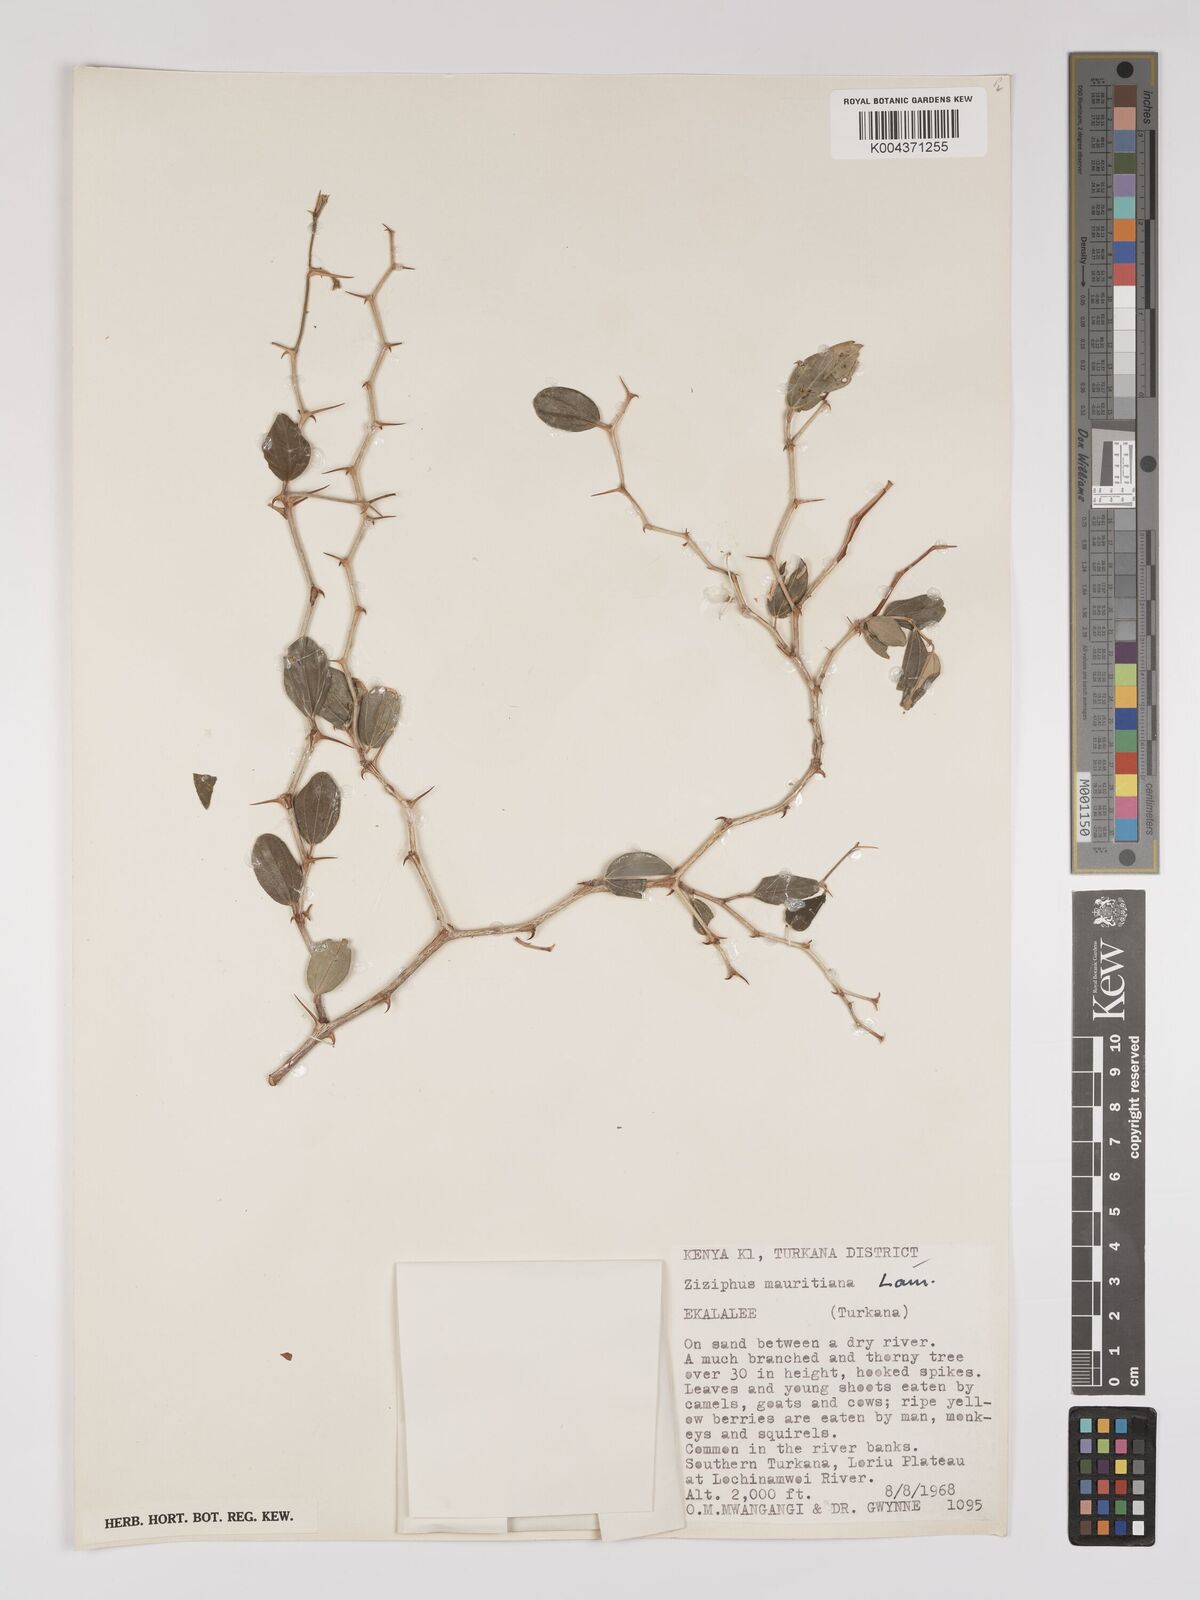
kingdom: Plantae
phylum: Tracheophyta
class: Magnoliopsida
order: Rosales
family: Rhamnaceae
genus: Ziziphus
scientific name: Ziziphus mauritiana
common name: Indian jujube
